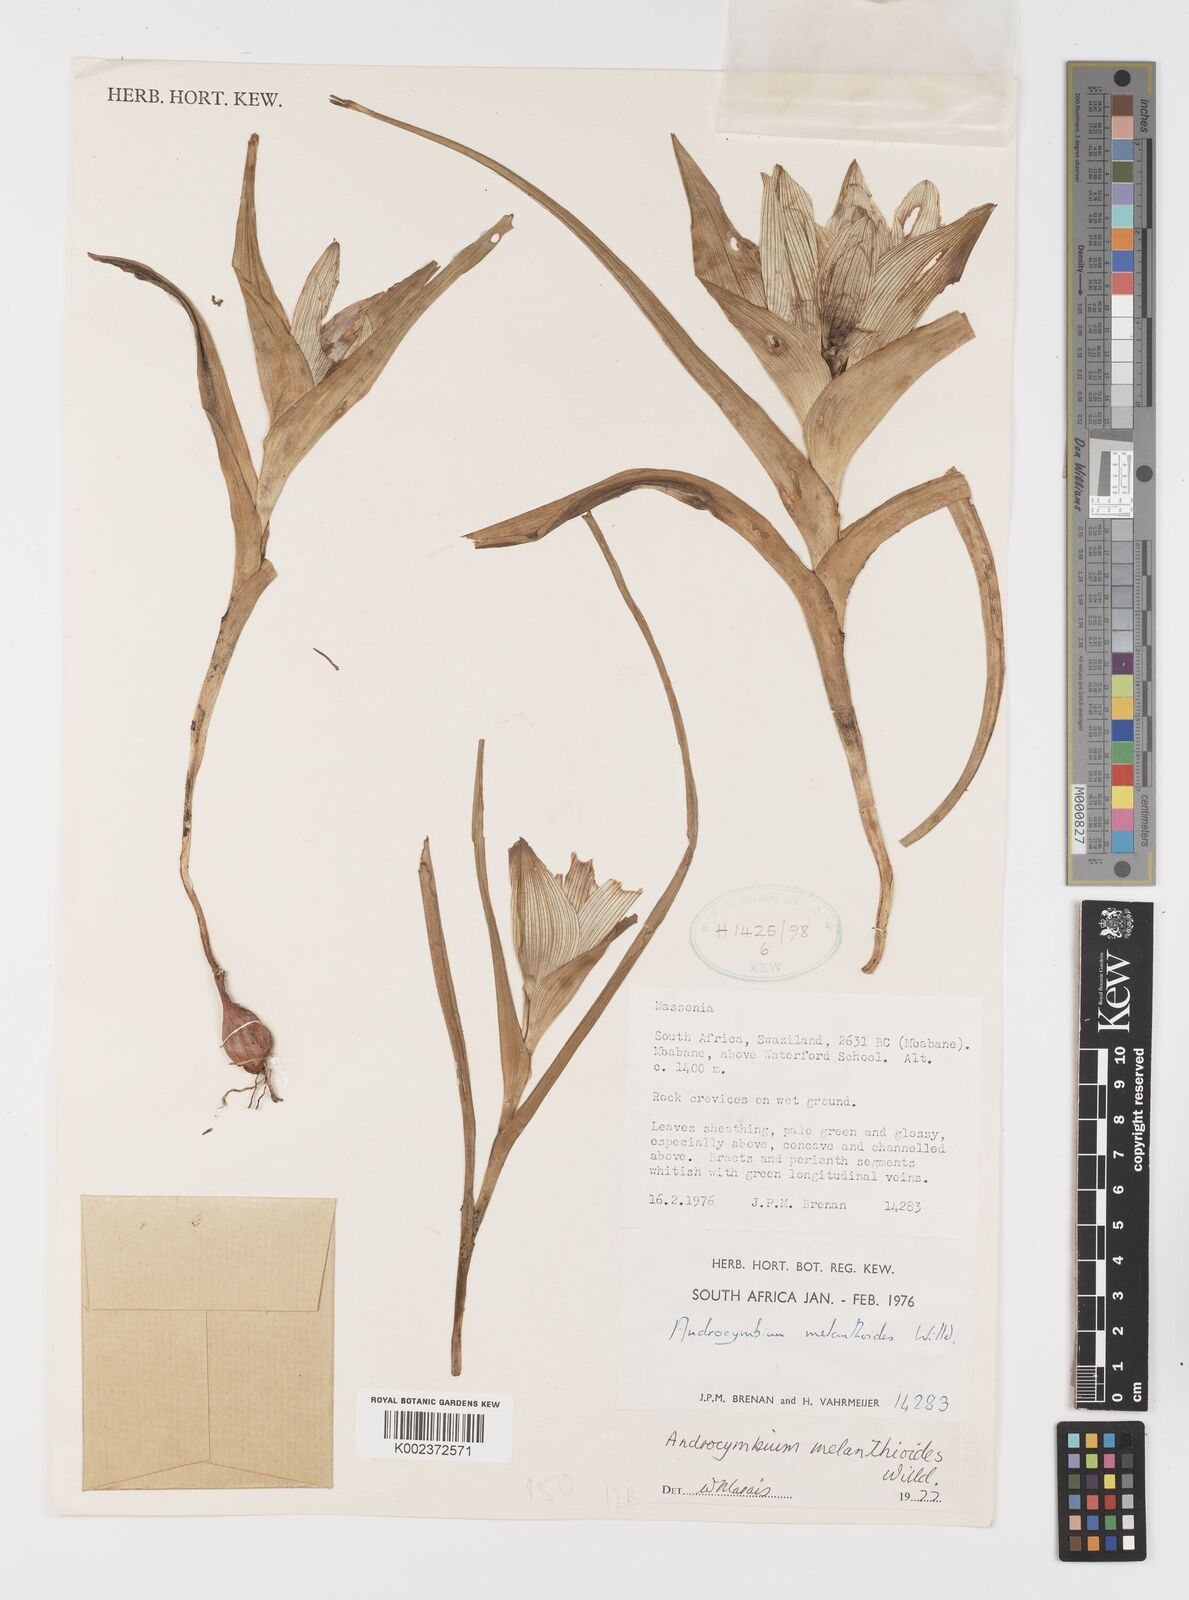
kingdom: Plantae
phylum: Tracheophyta
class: Liliopsida
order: Liliales
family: Colchicaceae
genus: Colchicum
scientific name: Colchicum melanthioides
